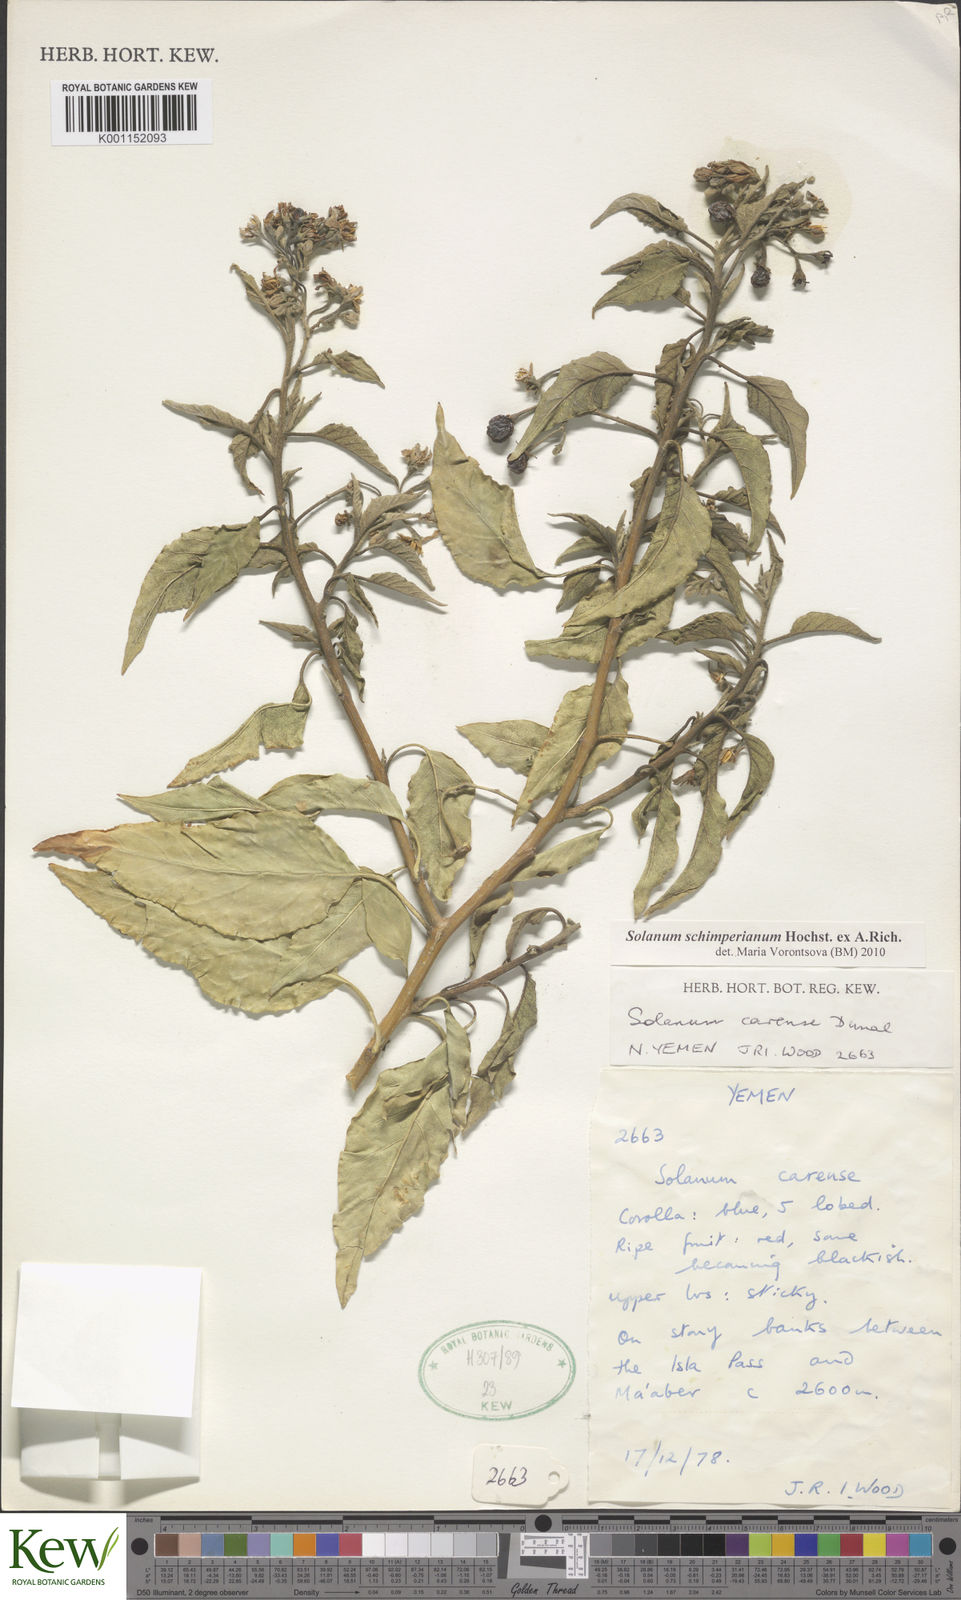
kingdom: Plantae
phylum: Tracheophyta
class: Magnoliopsida
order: Solanales
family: Solanaceae
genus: Solanum
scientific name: Solanum schimperianum
